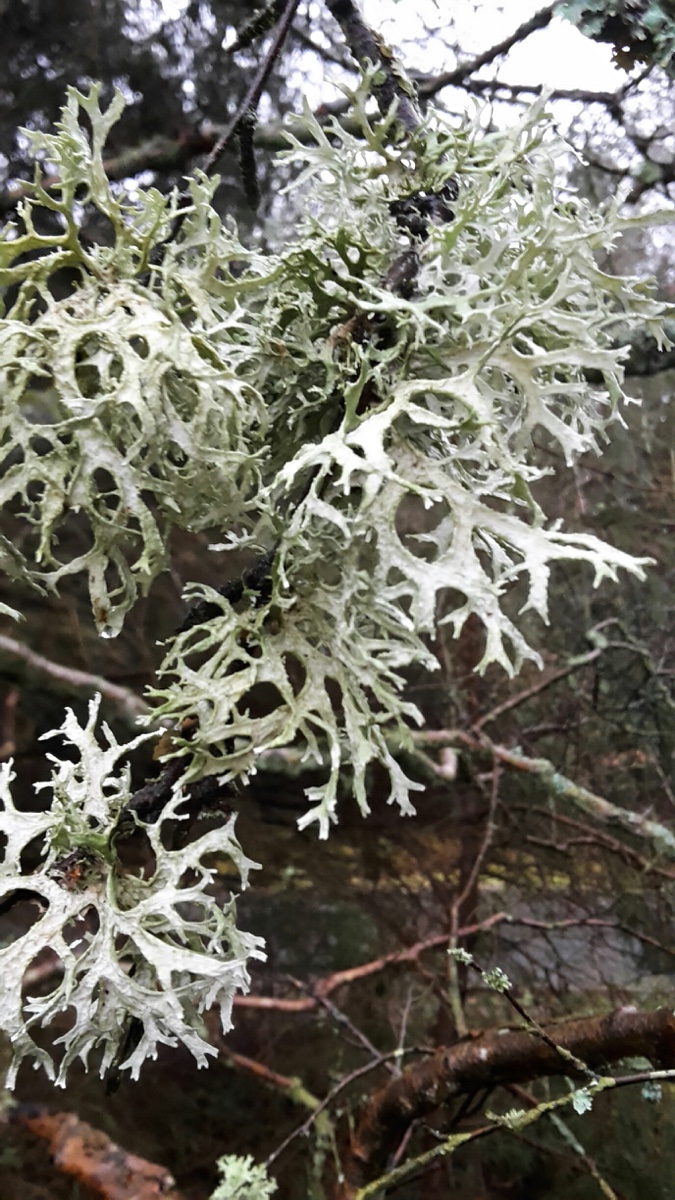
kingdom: Fungi
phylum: Ascomycota
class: Lecanoromycetes
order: Lecanorales
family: Parmeliaceae
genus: Evernia
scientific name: Evernia prunastri
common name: almindelig slåenlav
